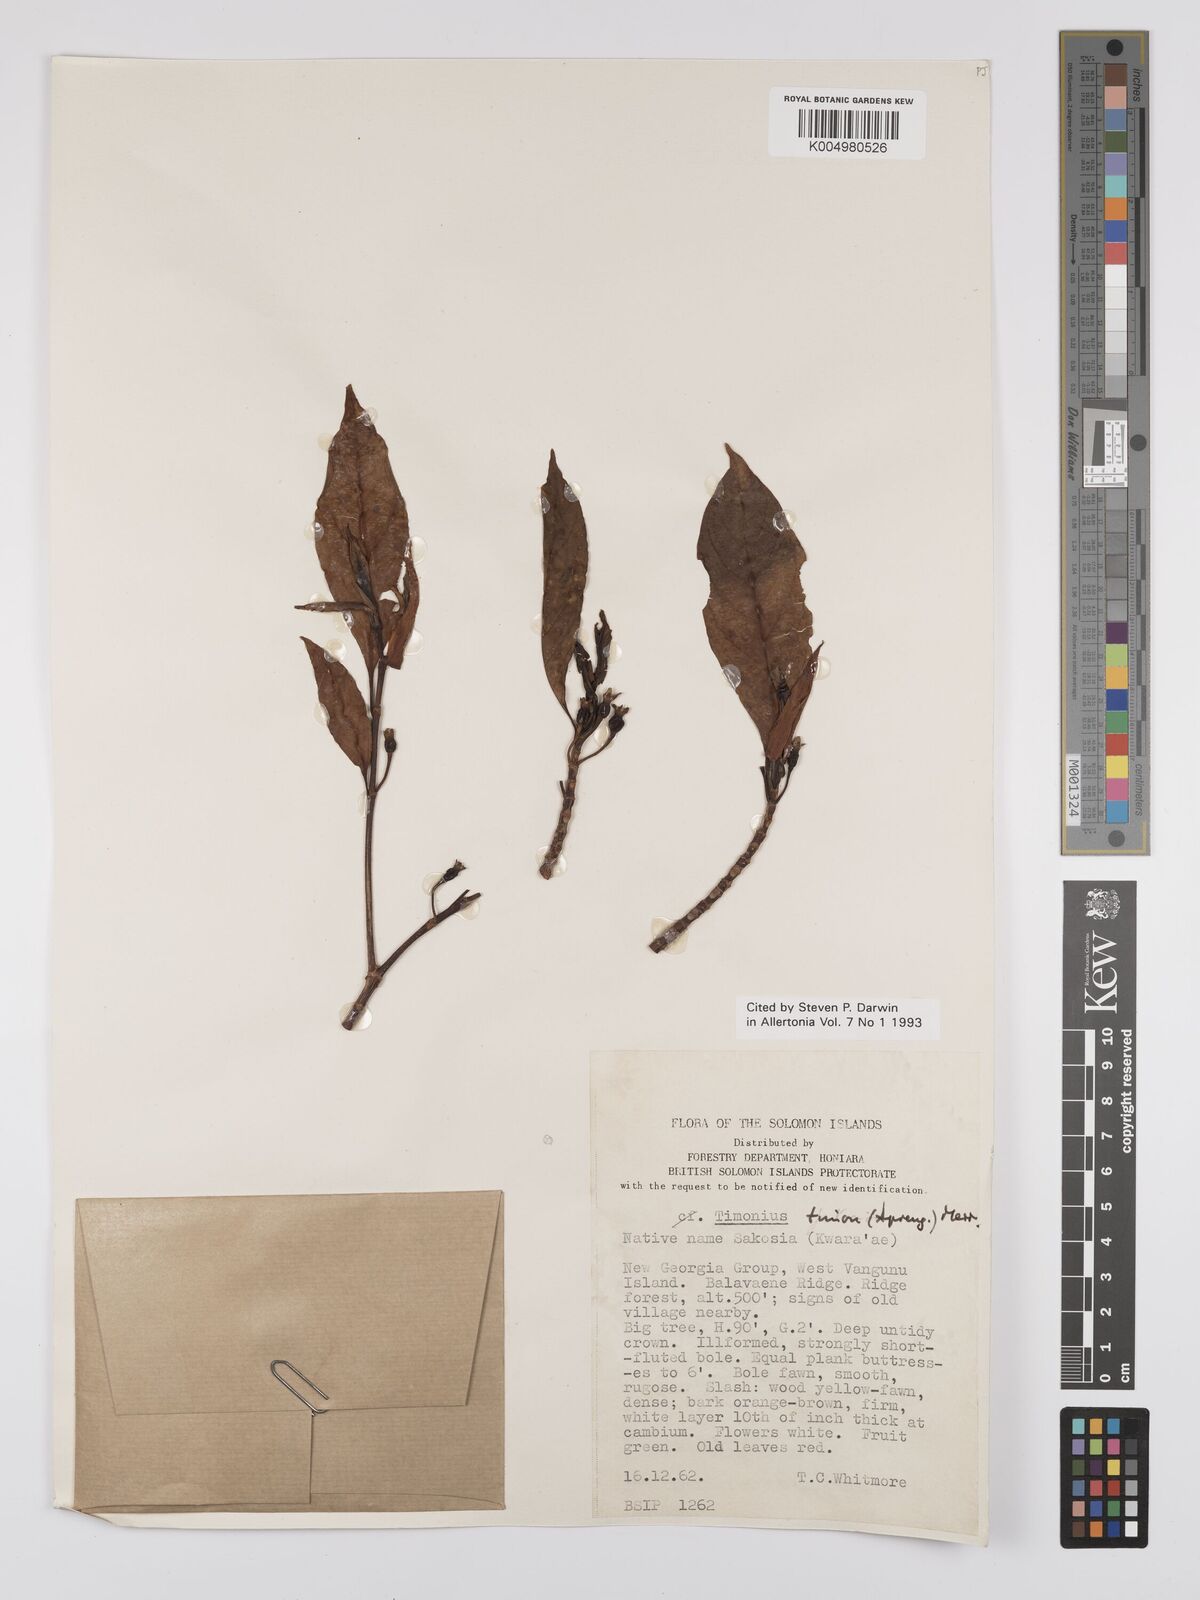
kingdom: Plantae
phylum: Tracheophyta
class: Magnoliopsida
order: Gentianales
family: Rubiaceae
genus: Timonius
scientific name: Timonius timon
